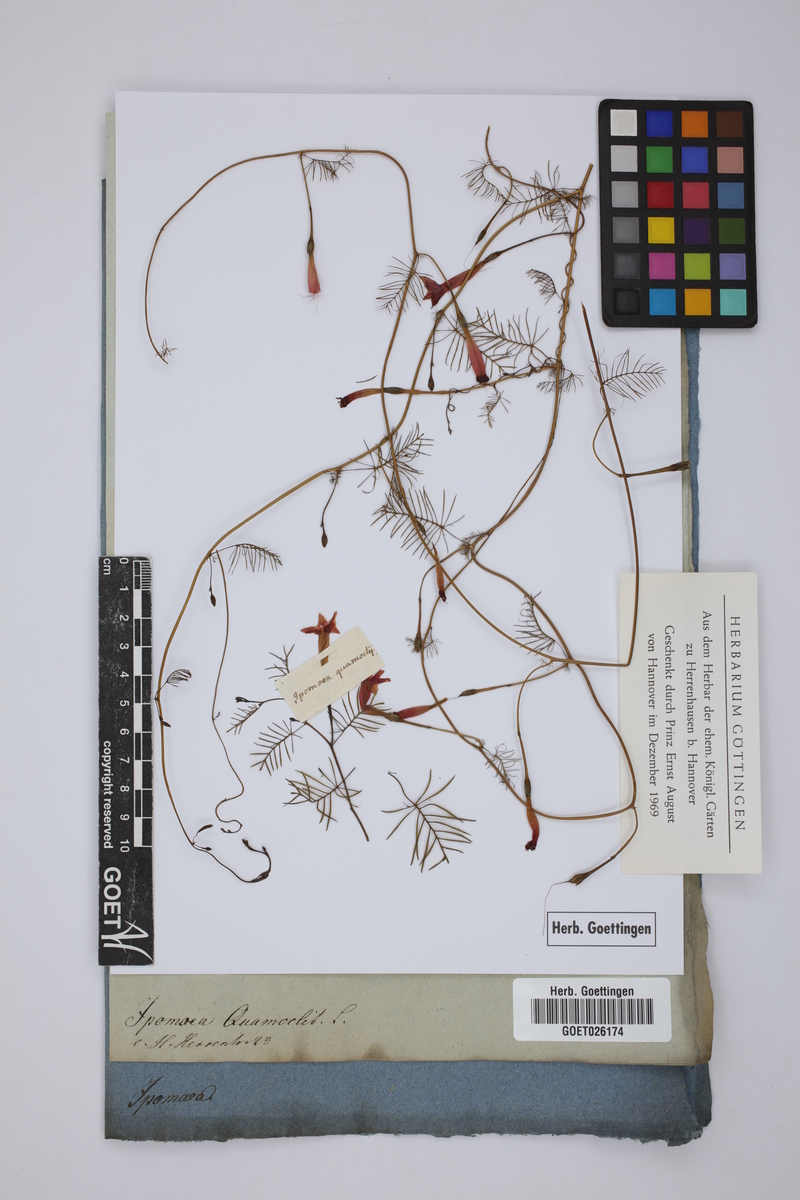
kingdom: Plantae
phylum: Tracheophyta
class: Magnoliopsida
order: Solanales
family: Convolvulaceae
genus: Ipomoea
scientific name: Ipomoea quamoclit
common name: Cypress vine
